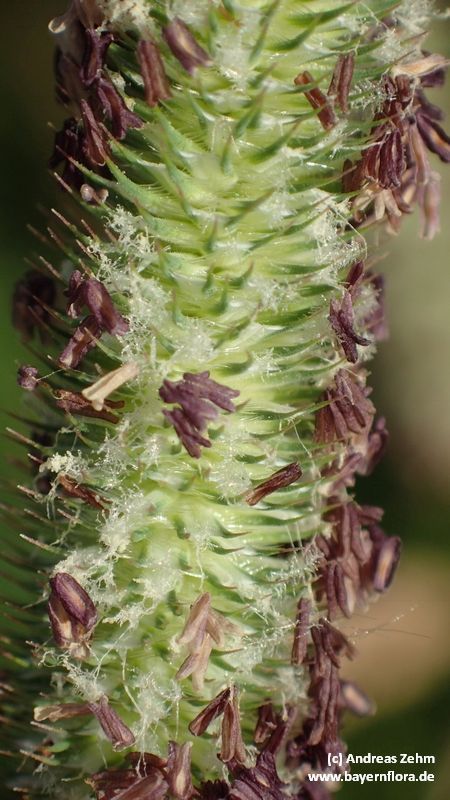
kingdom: Plantae
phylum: Tracheophyta
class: Liliopsida
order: Poales
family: Poaceae
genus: Phleum
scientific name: Phleum pratense
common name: Timothy grass
